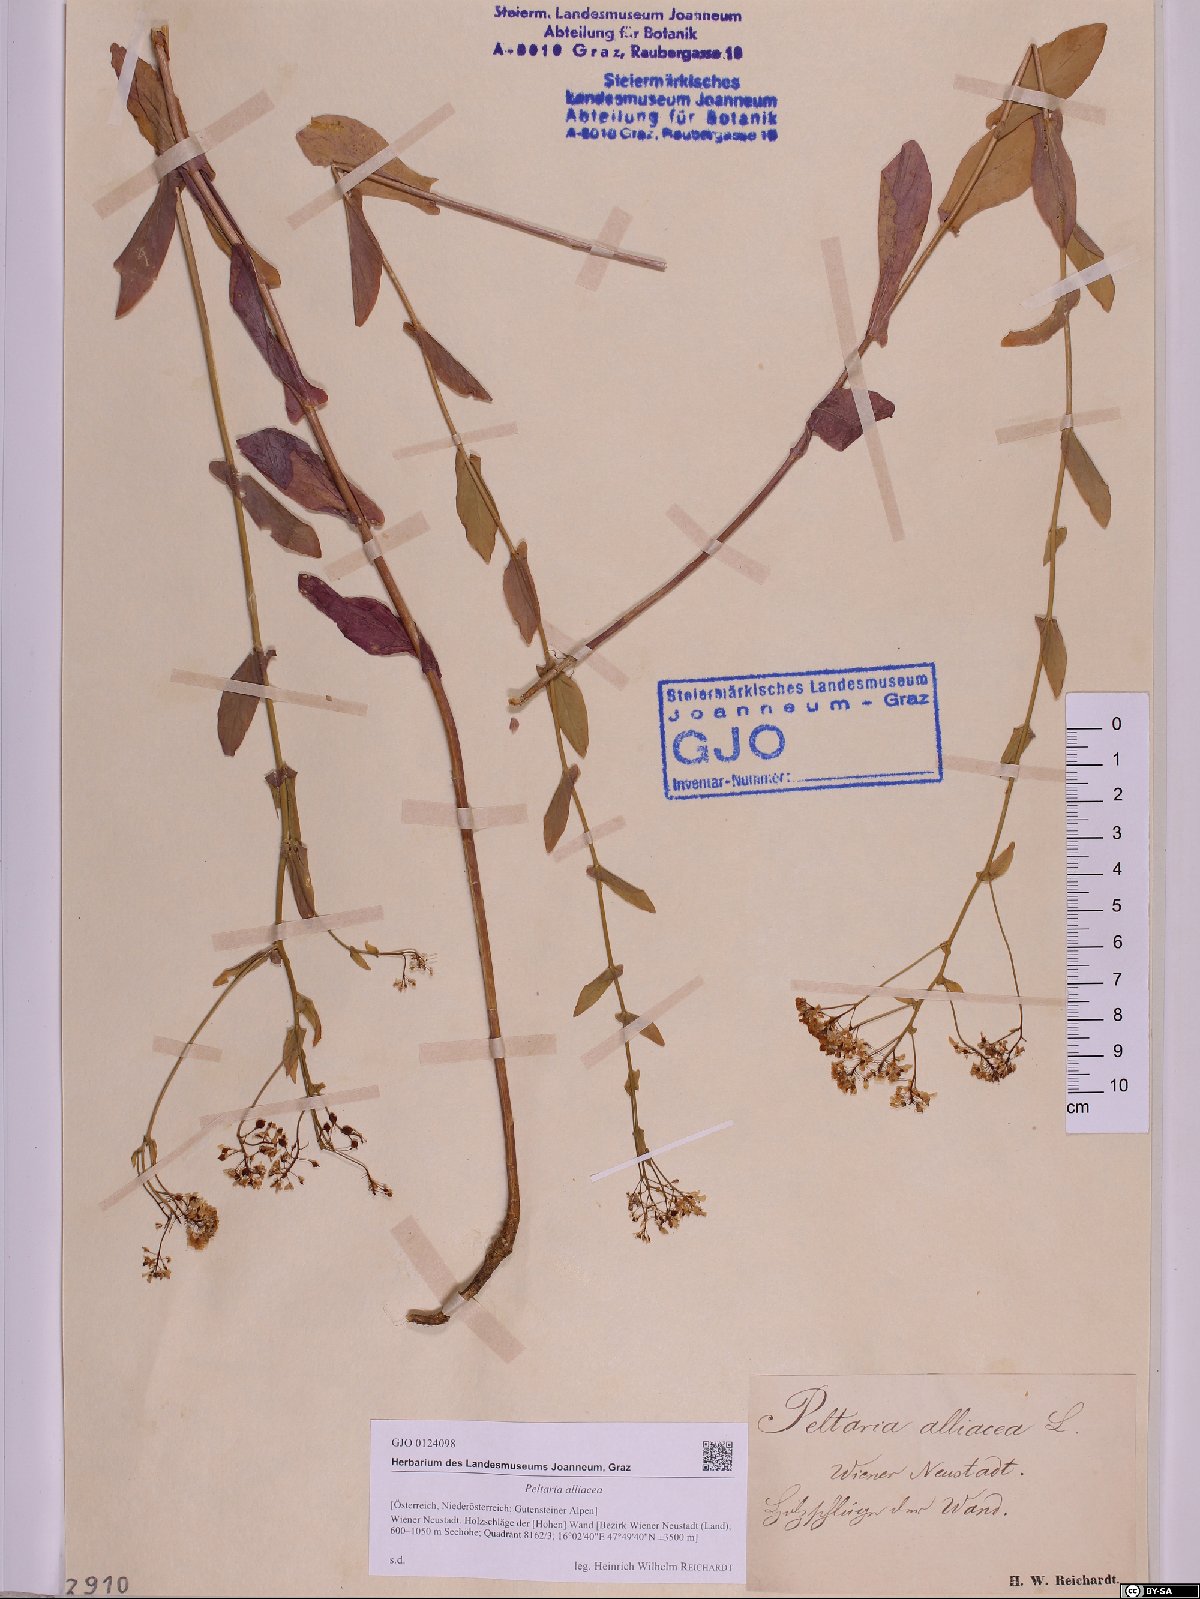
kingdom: Plantae
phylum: Tracheophyta
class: Magnoliopsida
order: Brassicales
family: Brassicaceae
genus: Peltaria
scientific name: Peltaria alliacea
